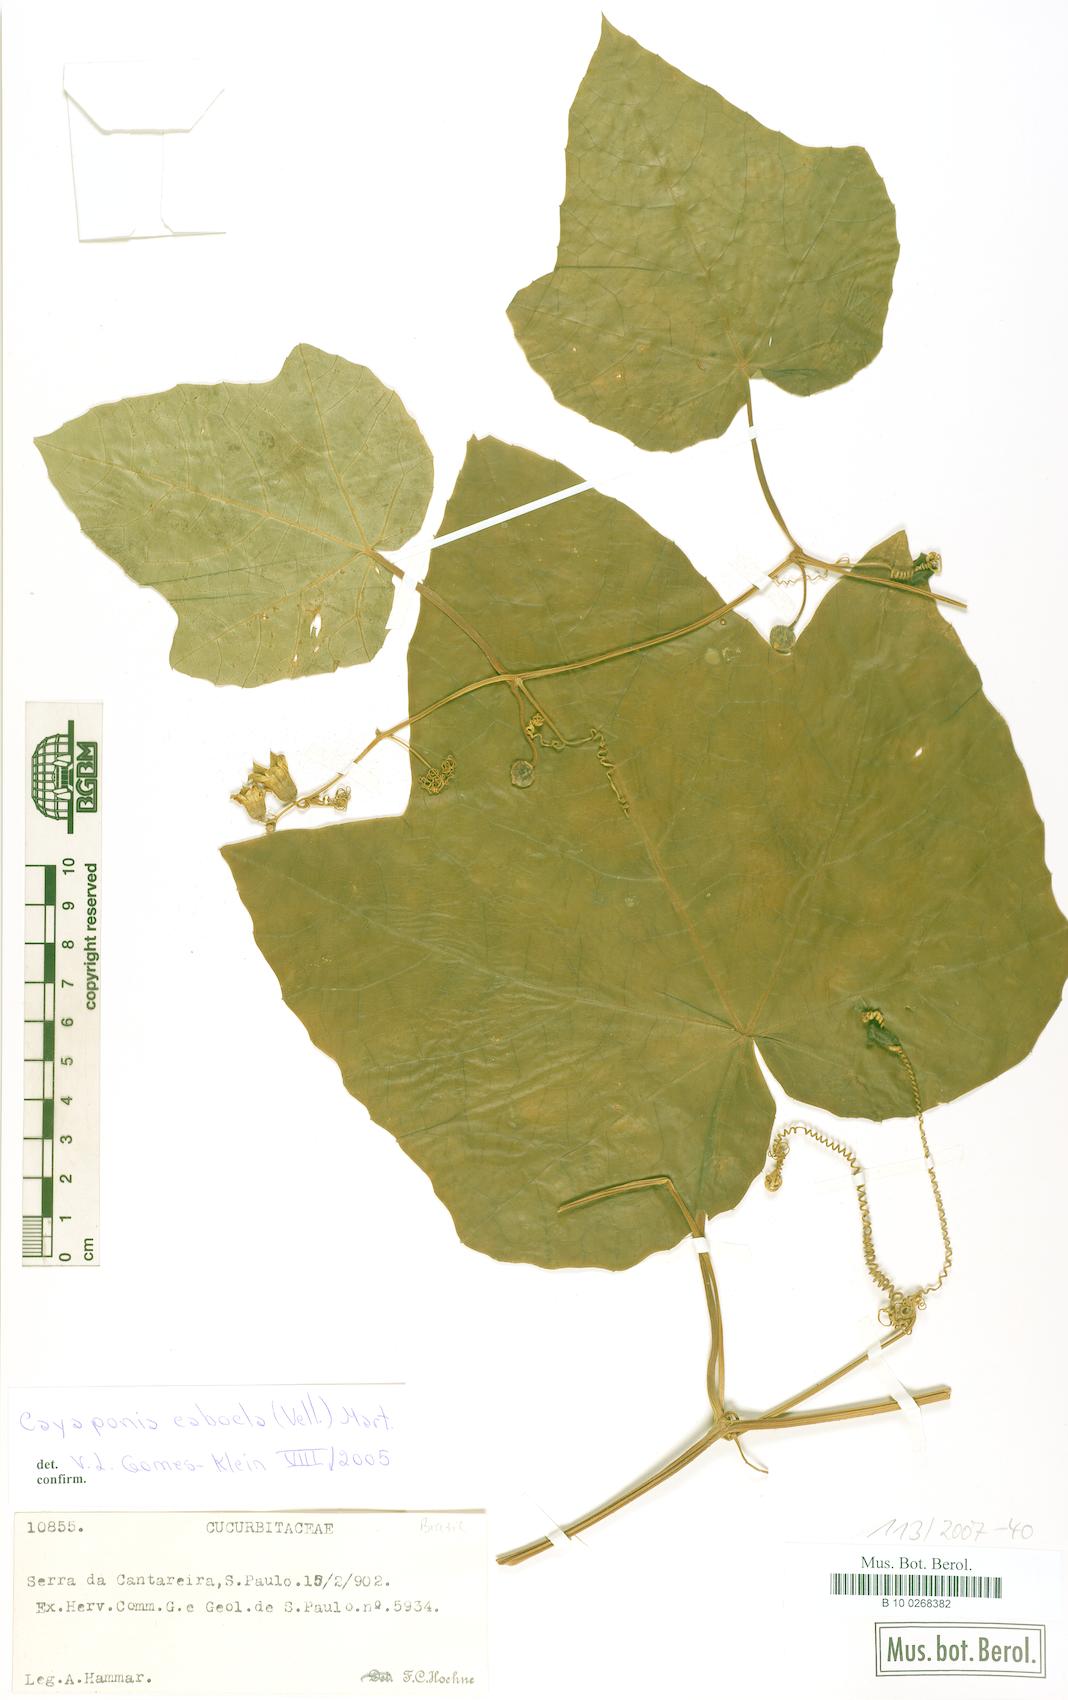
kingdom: Plantae
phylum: Tracheophyta
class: Magnoliopsida
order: Cucurbitales
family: Cucurbitaceae
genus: Cayaponia
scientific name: Cayaponia cabocla
